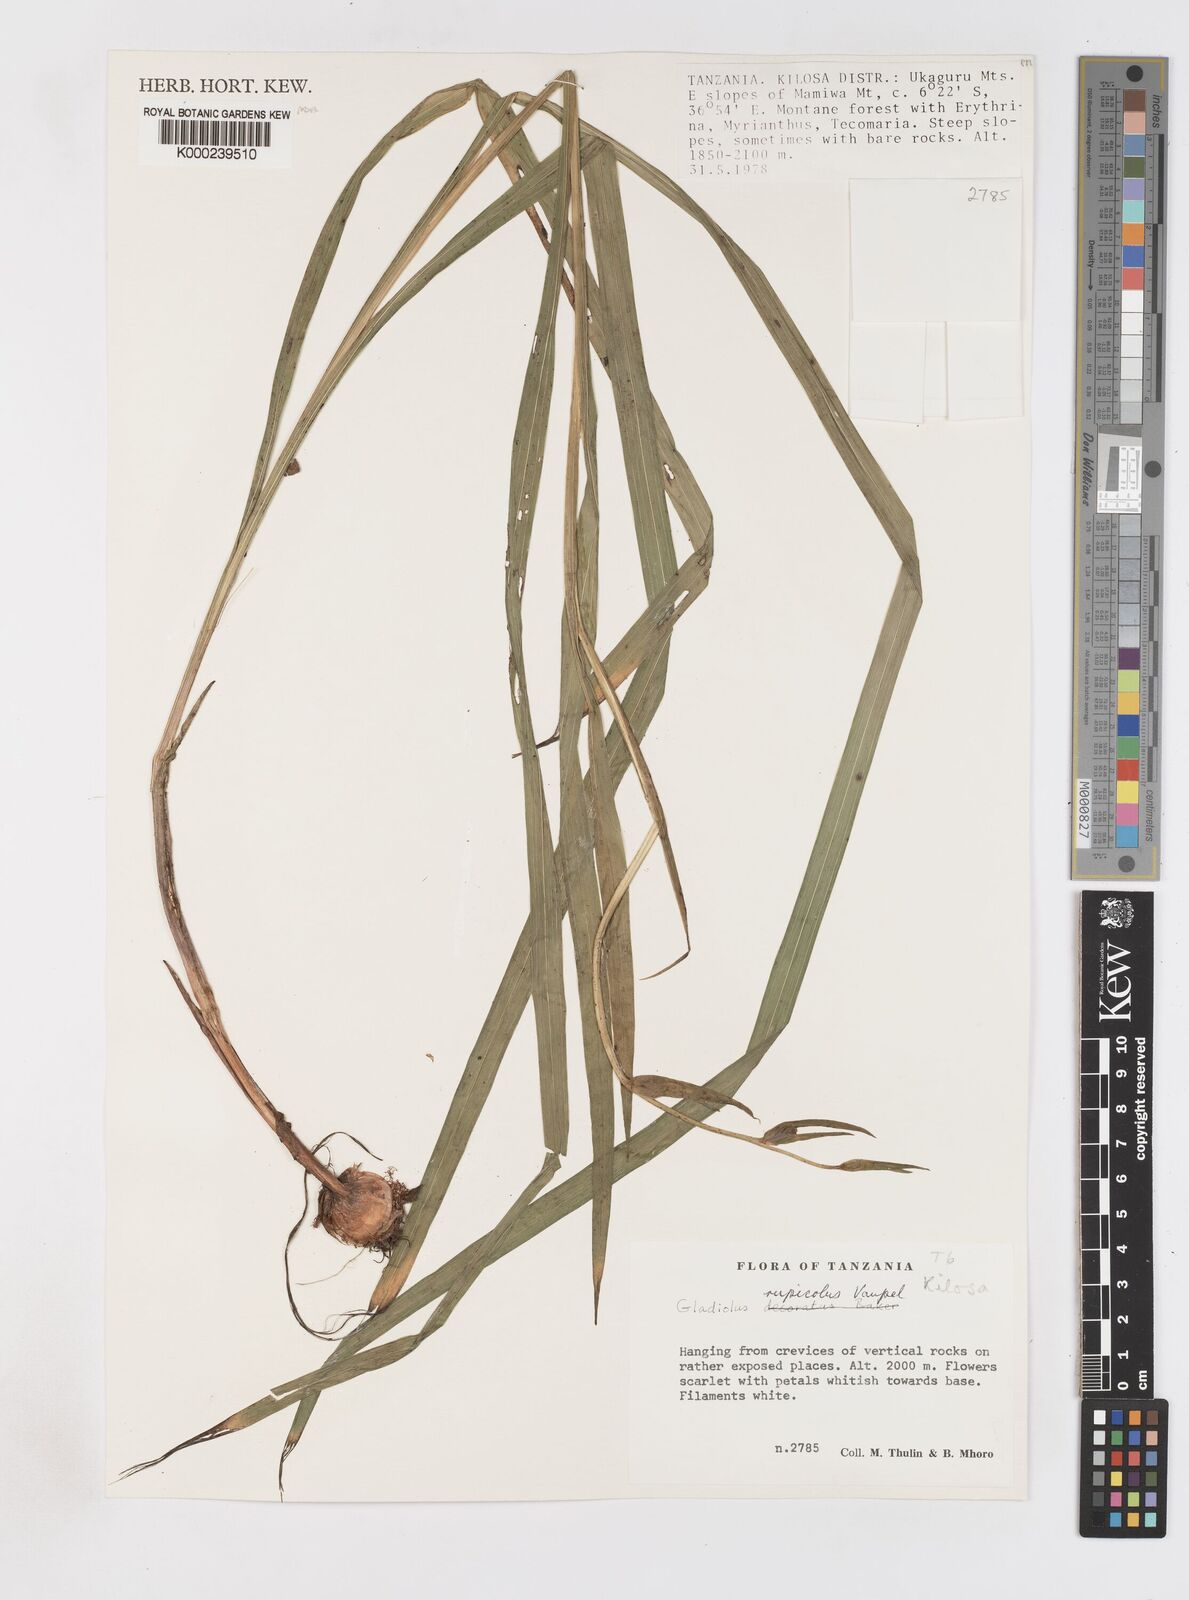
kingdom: Plantae
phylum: Tracheophyta
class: Liliopsida
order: Asparagales
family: Iridaceae
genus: Gladiolus
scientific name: Gladiolus rupicola
